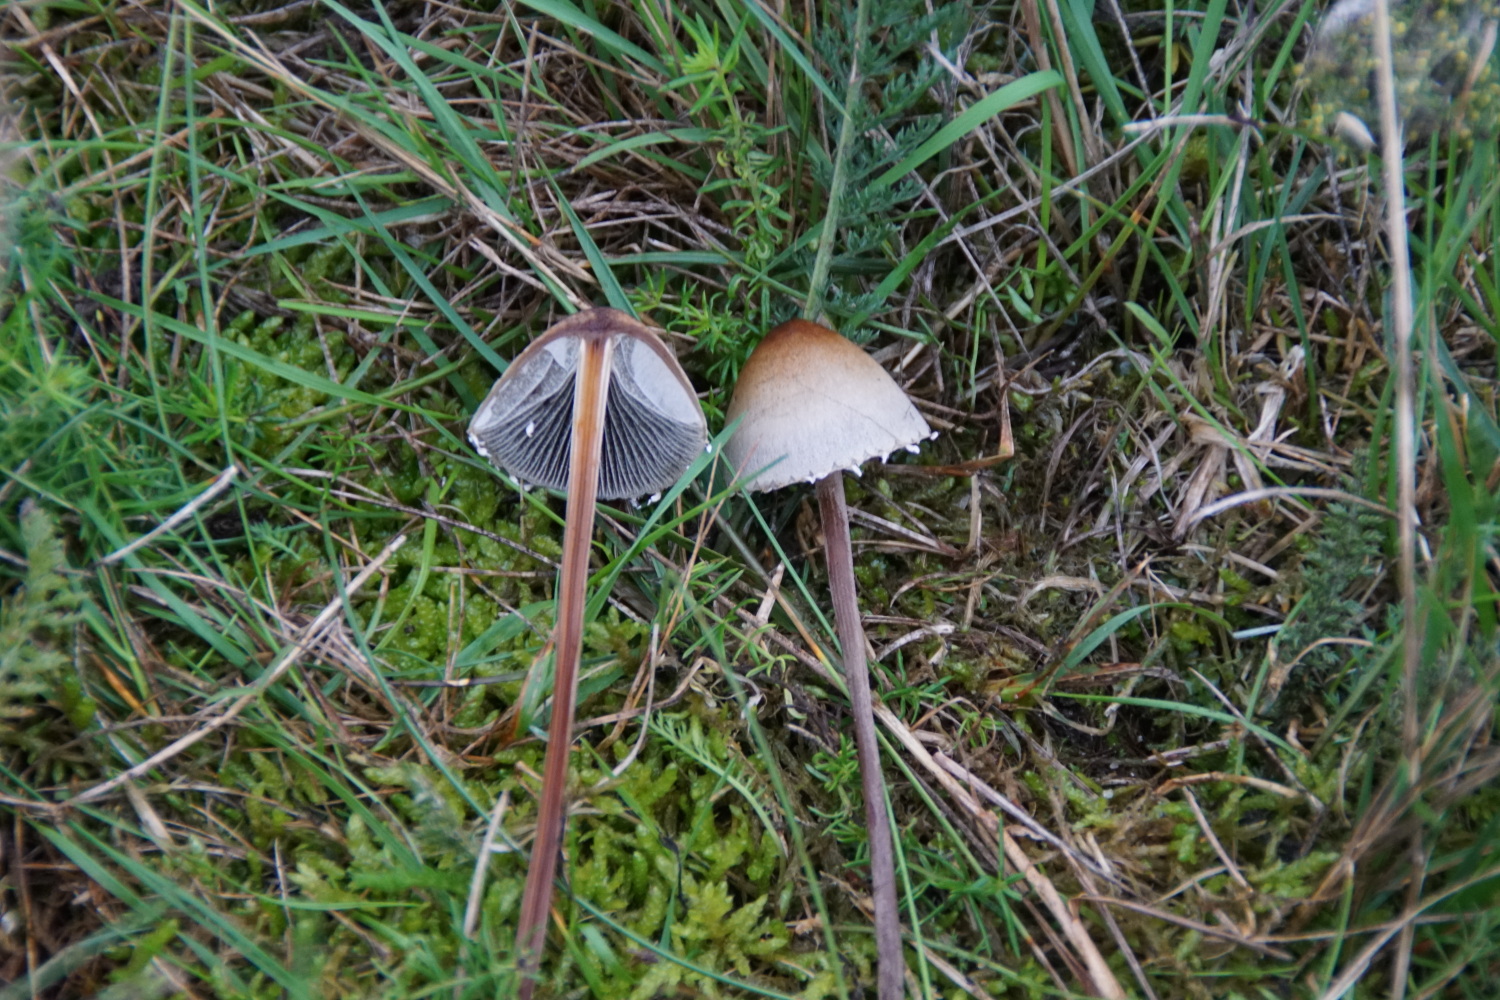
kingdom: Fungi
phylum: Basidiomycota
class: Agaricomycetes
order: Agaricales
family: Bolbitiaceae
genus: Panaeolus
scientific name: Panaeolus papilionaceus
